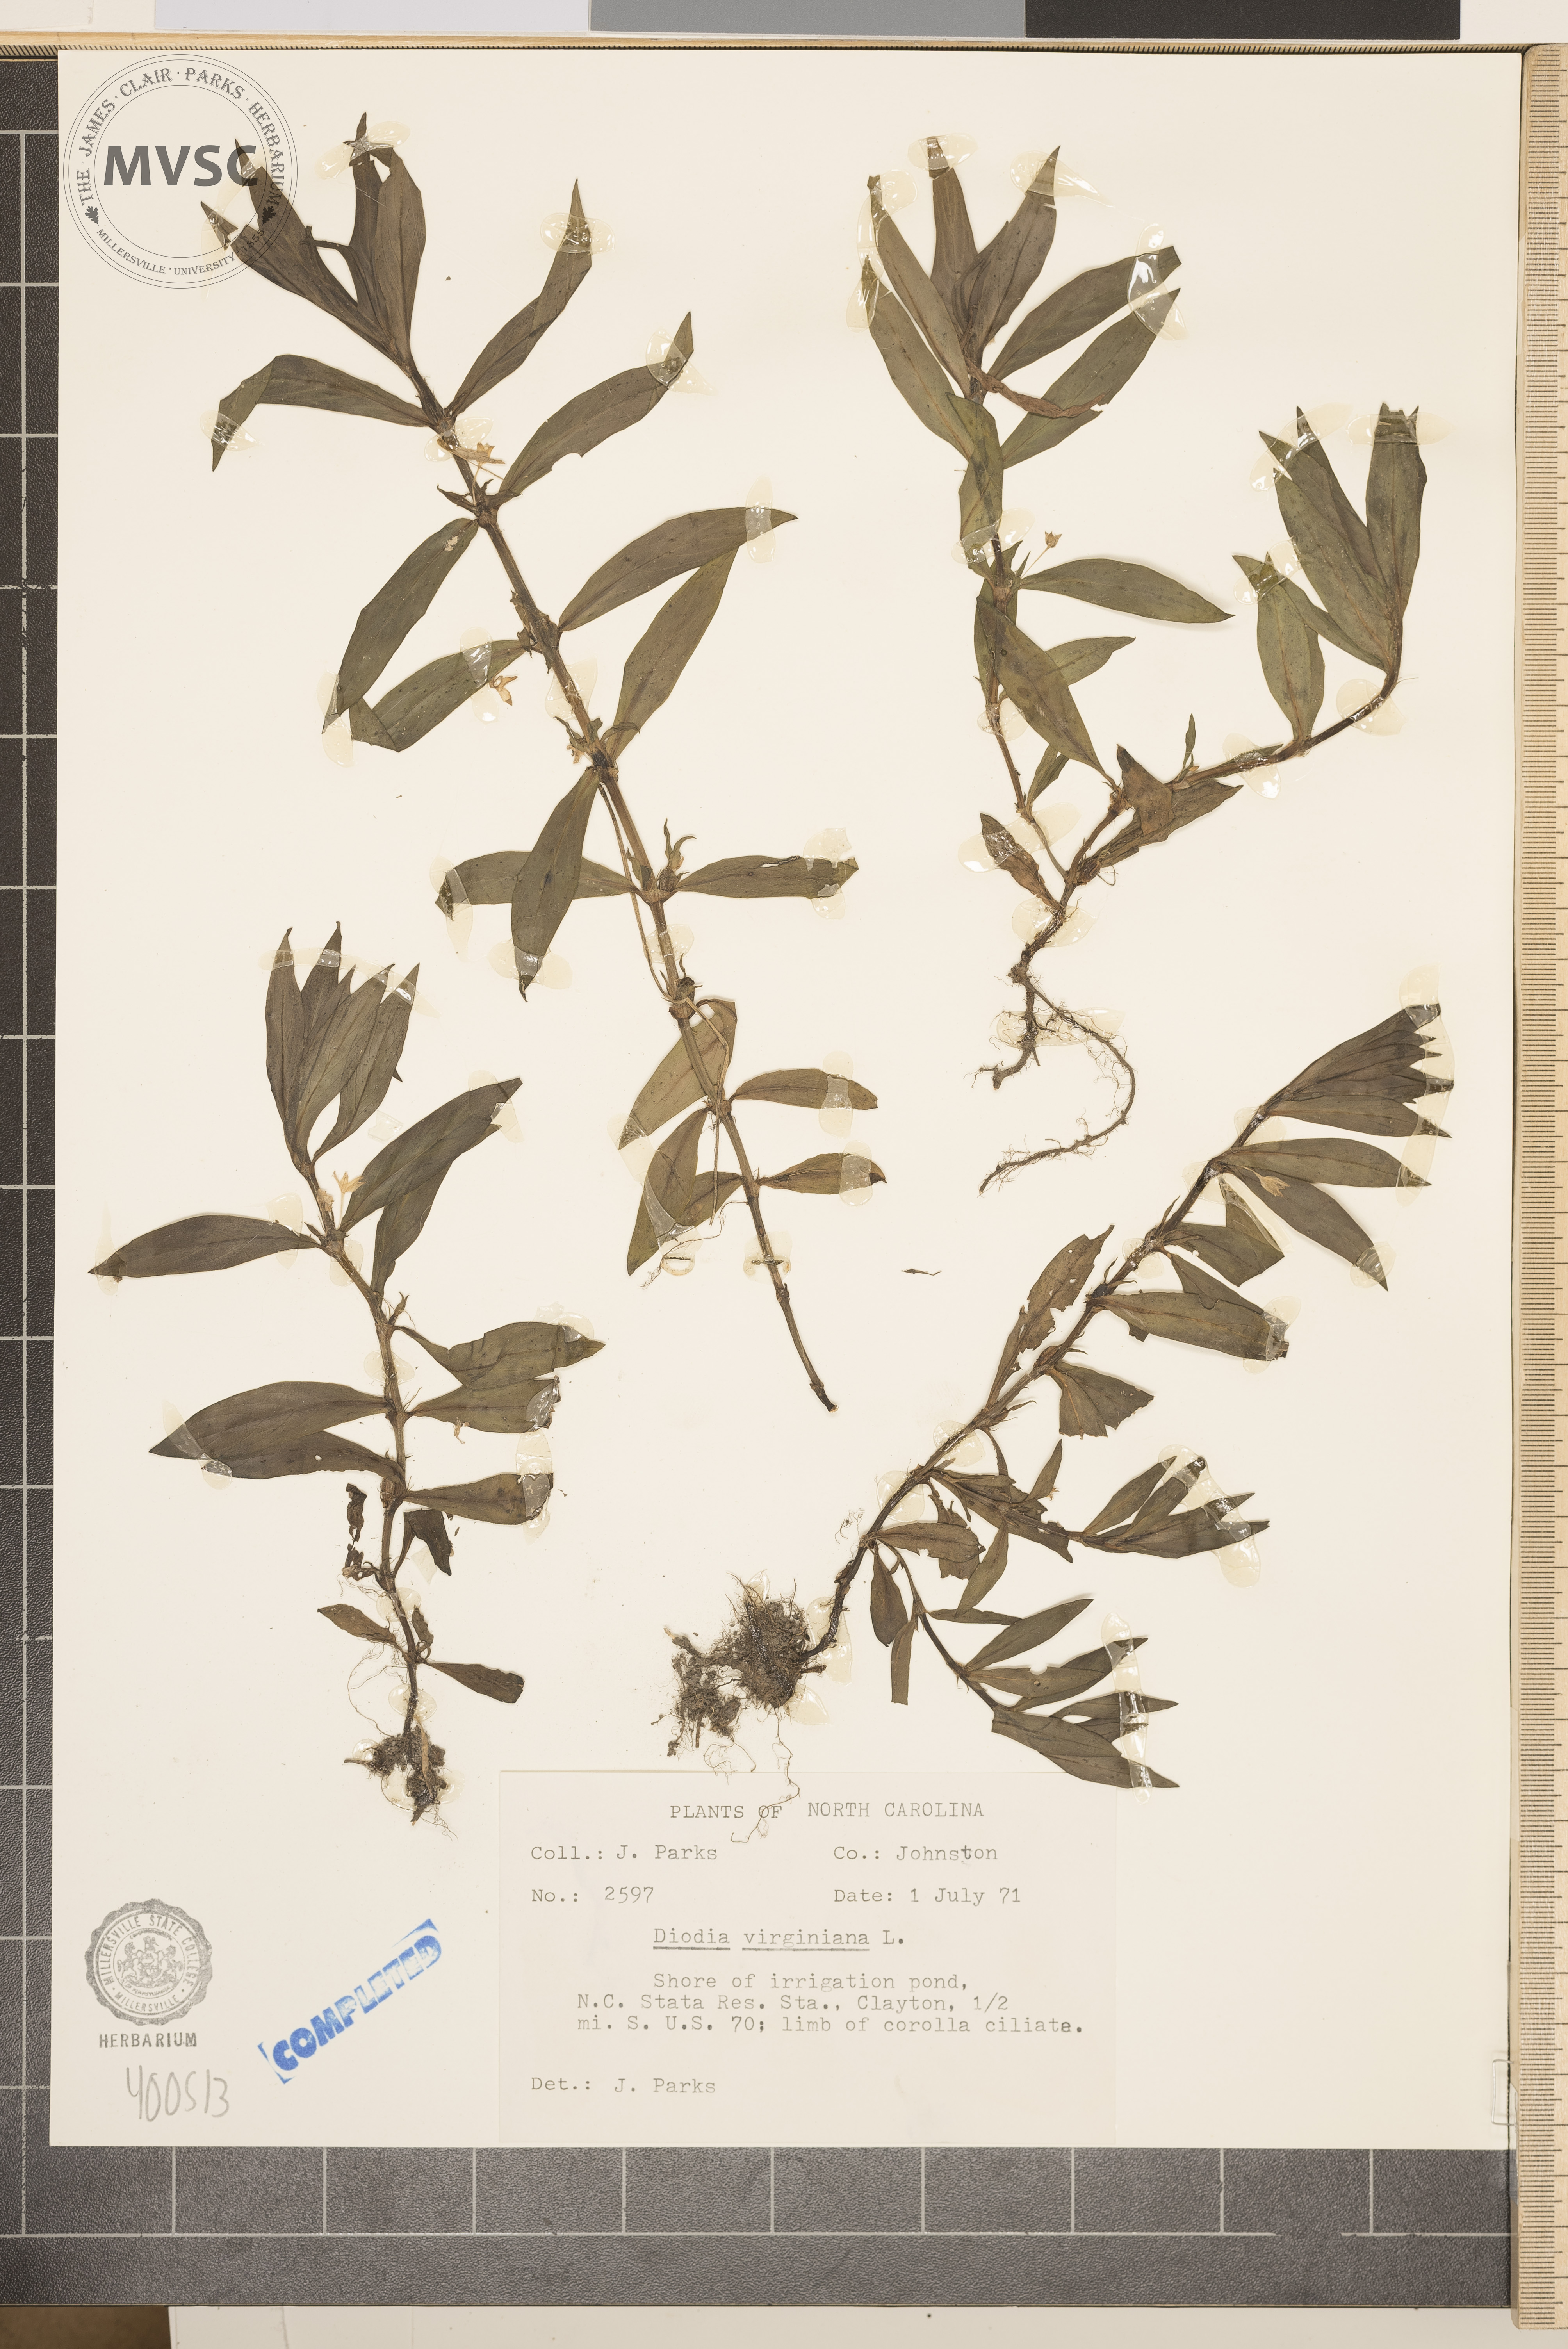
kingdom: Plantae
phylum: Tracheophyta
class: Magnoliopsida
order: Gentianales
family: Rubiaceae
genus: Diodia
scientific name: Diodia virginiana
